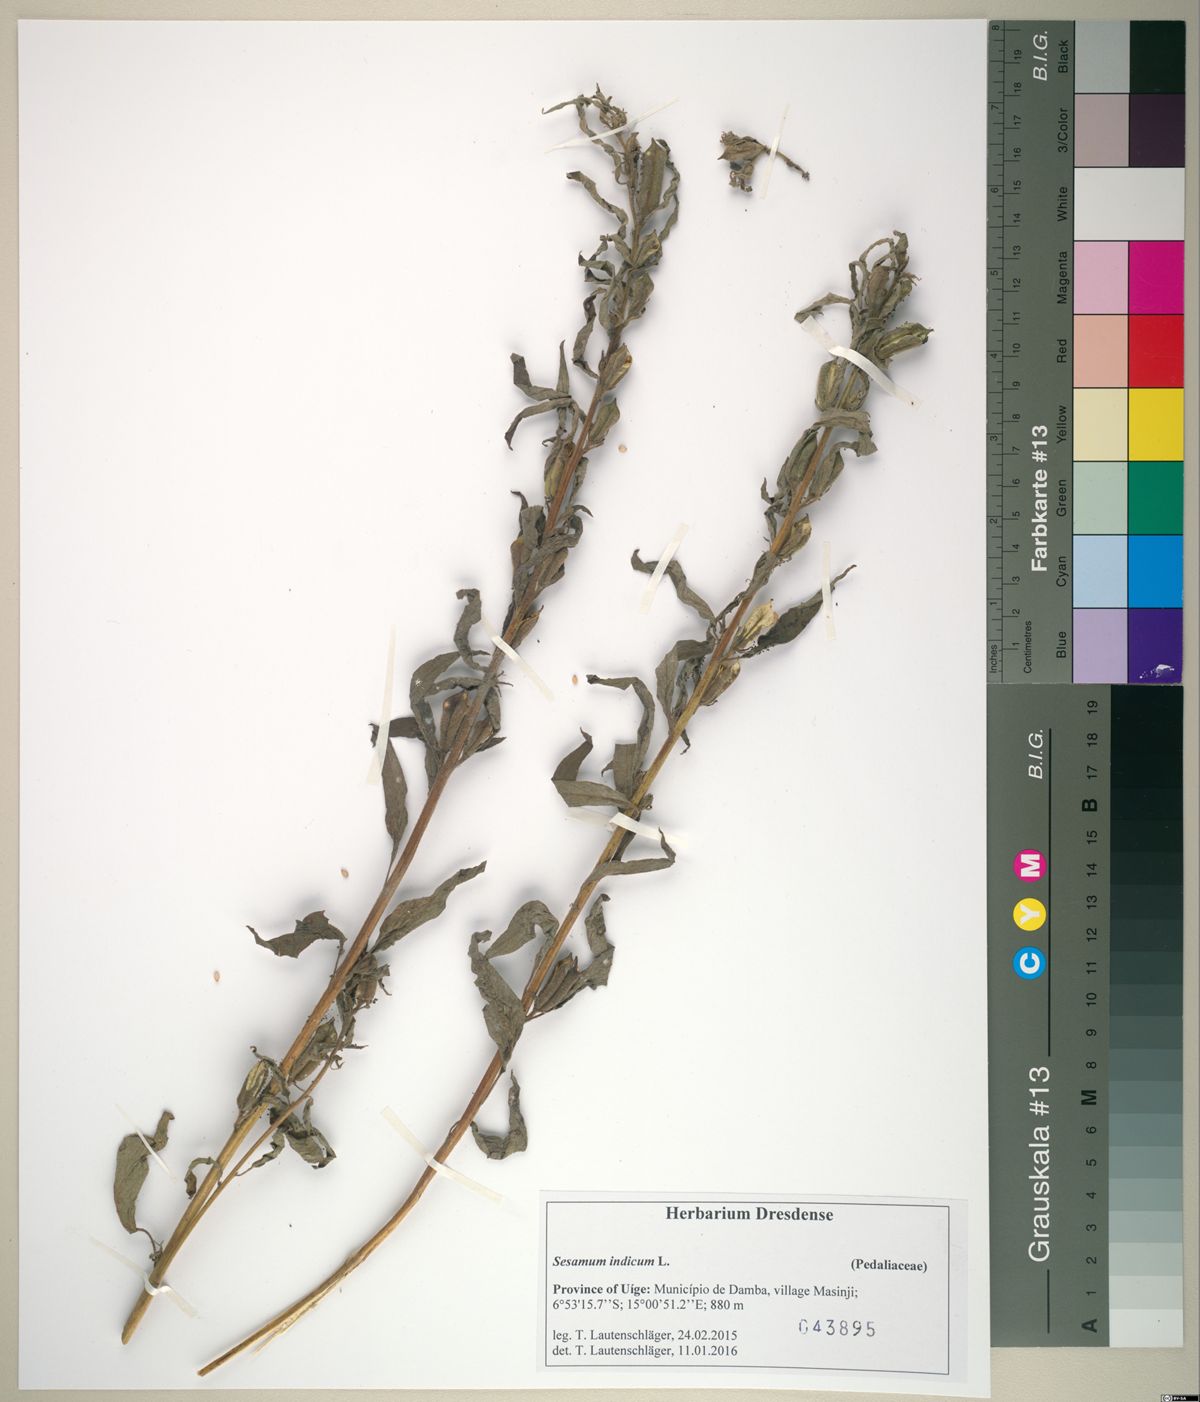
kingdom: Plantae
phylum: Tracheophyta
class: Magnoliopsida
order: Lamiales
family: Pedaliaceae
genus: Sesamum
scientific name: Sesamum indicum
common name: Sesame
